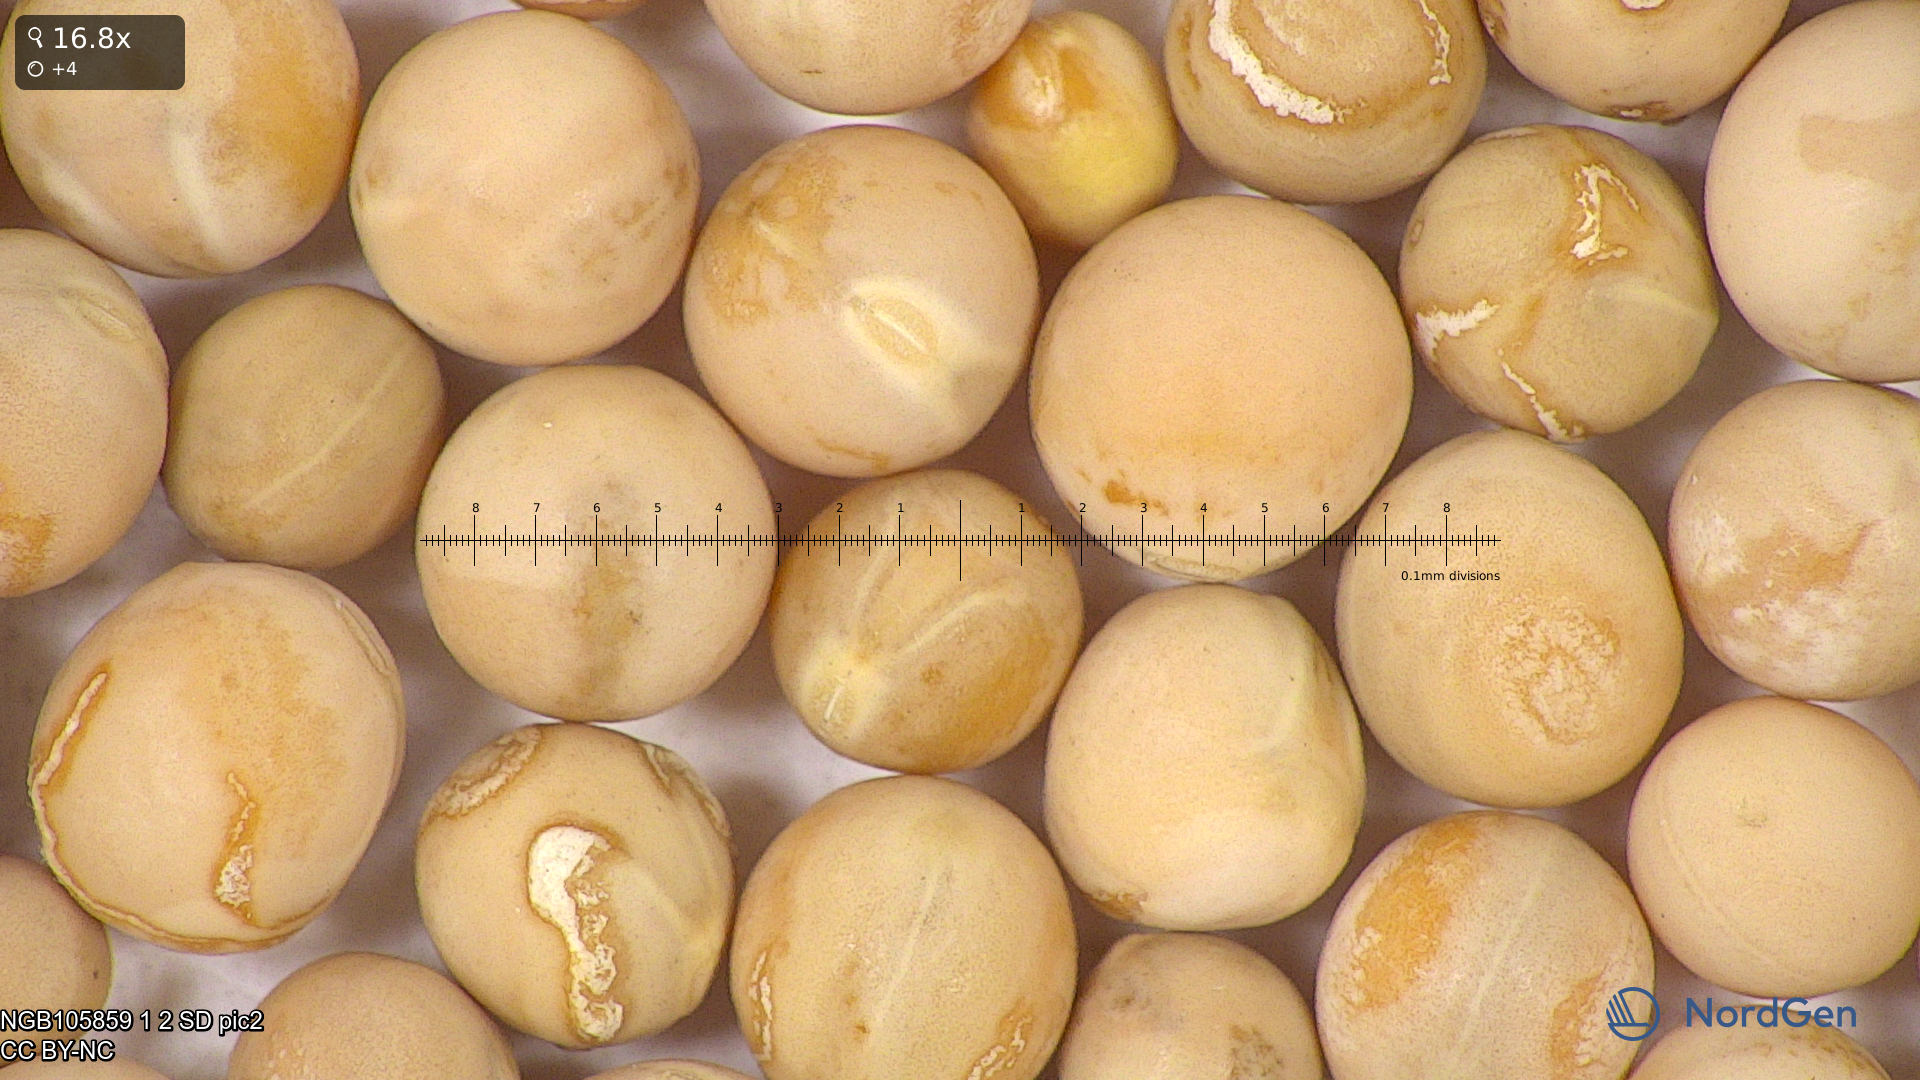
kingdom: Plantae
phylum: Tracheophyta
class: Magnoliopsida
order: Fabales
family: Fabaceae
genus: Lathyrus
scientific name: Lathyrus oleraceus
